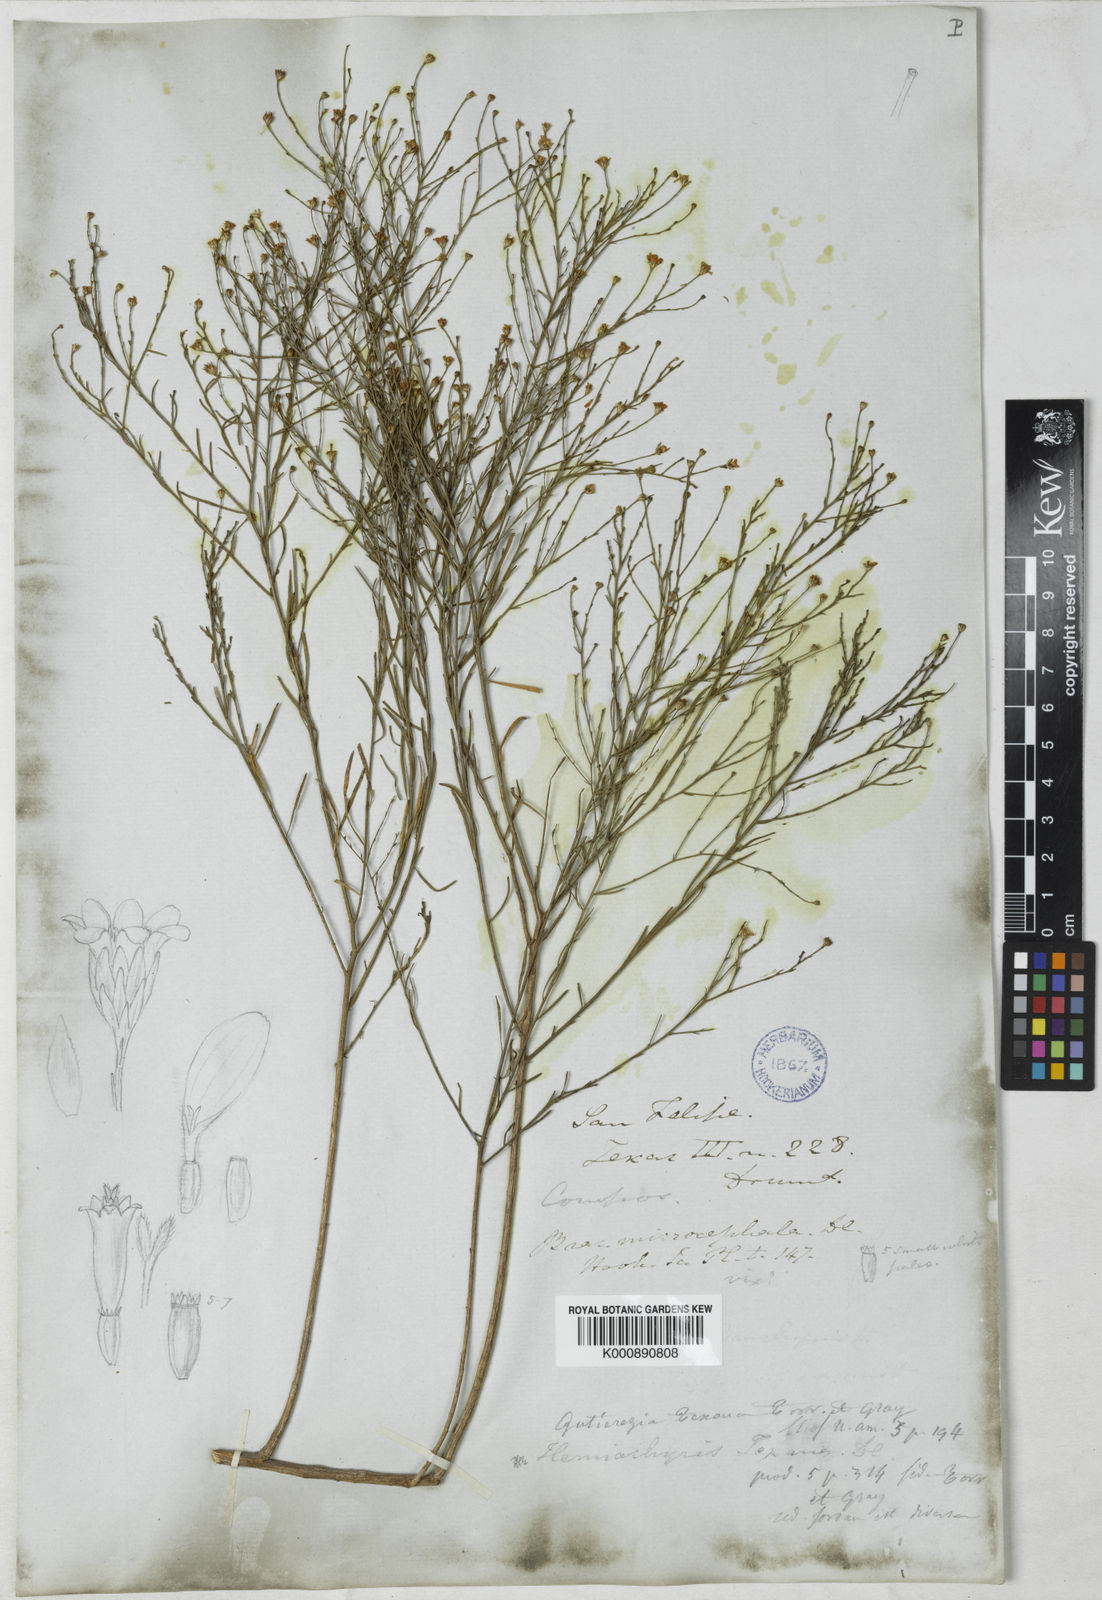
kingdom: Plantae
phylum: Tracheophyta
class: Magnoliopsida
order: Asterales
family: Asteraceae
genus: Gutierrezia
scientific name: Gutierrezia texana
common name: Texas snakeweed
